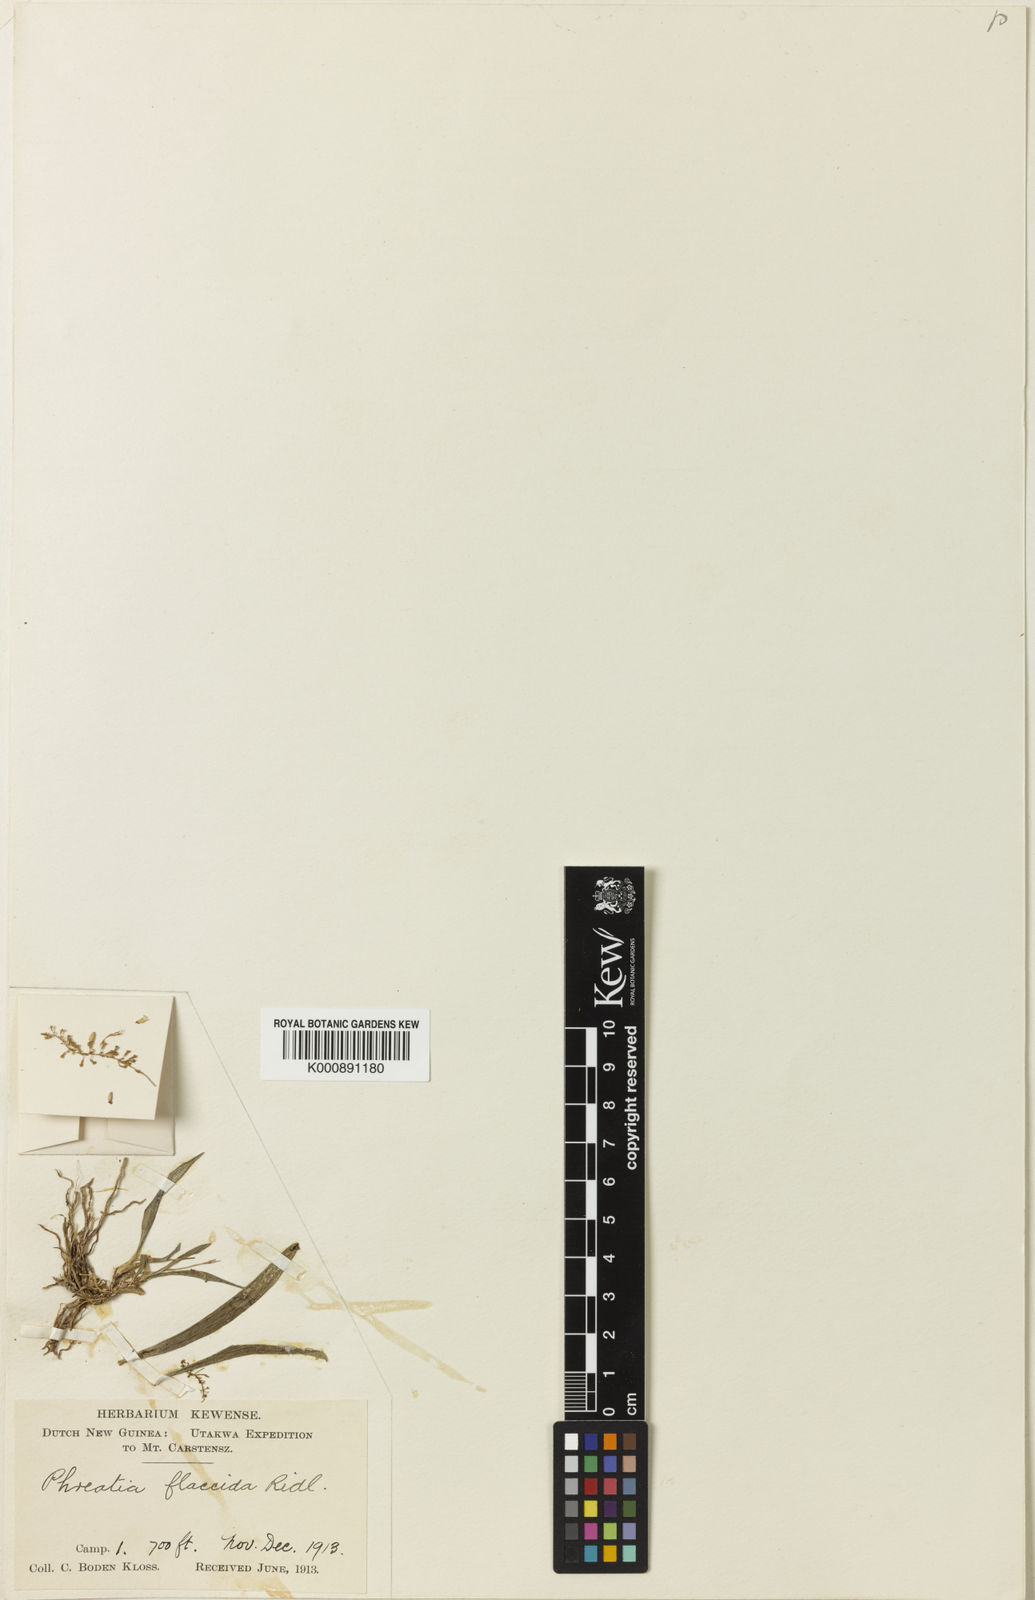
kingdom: Plantae
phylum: Tracheophyta
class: Liliopsida
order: Asparagales
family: Orchidaceae
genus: Phreatia
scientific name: Phreatia flaccida
